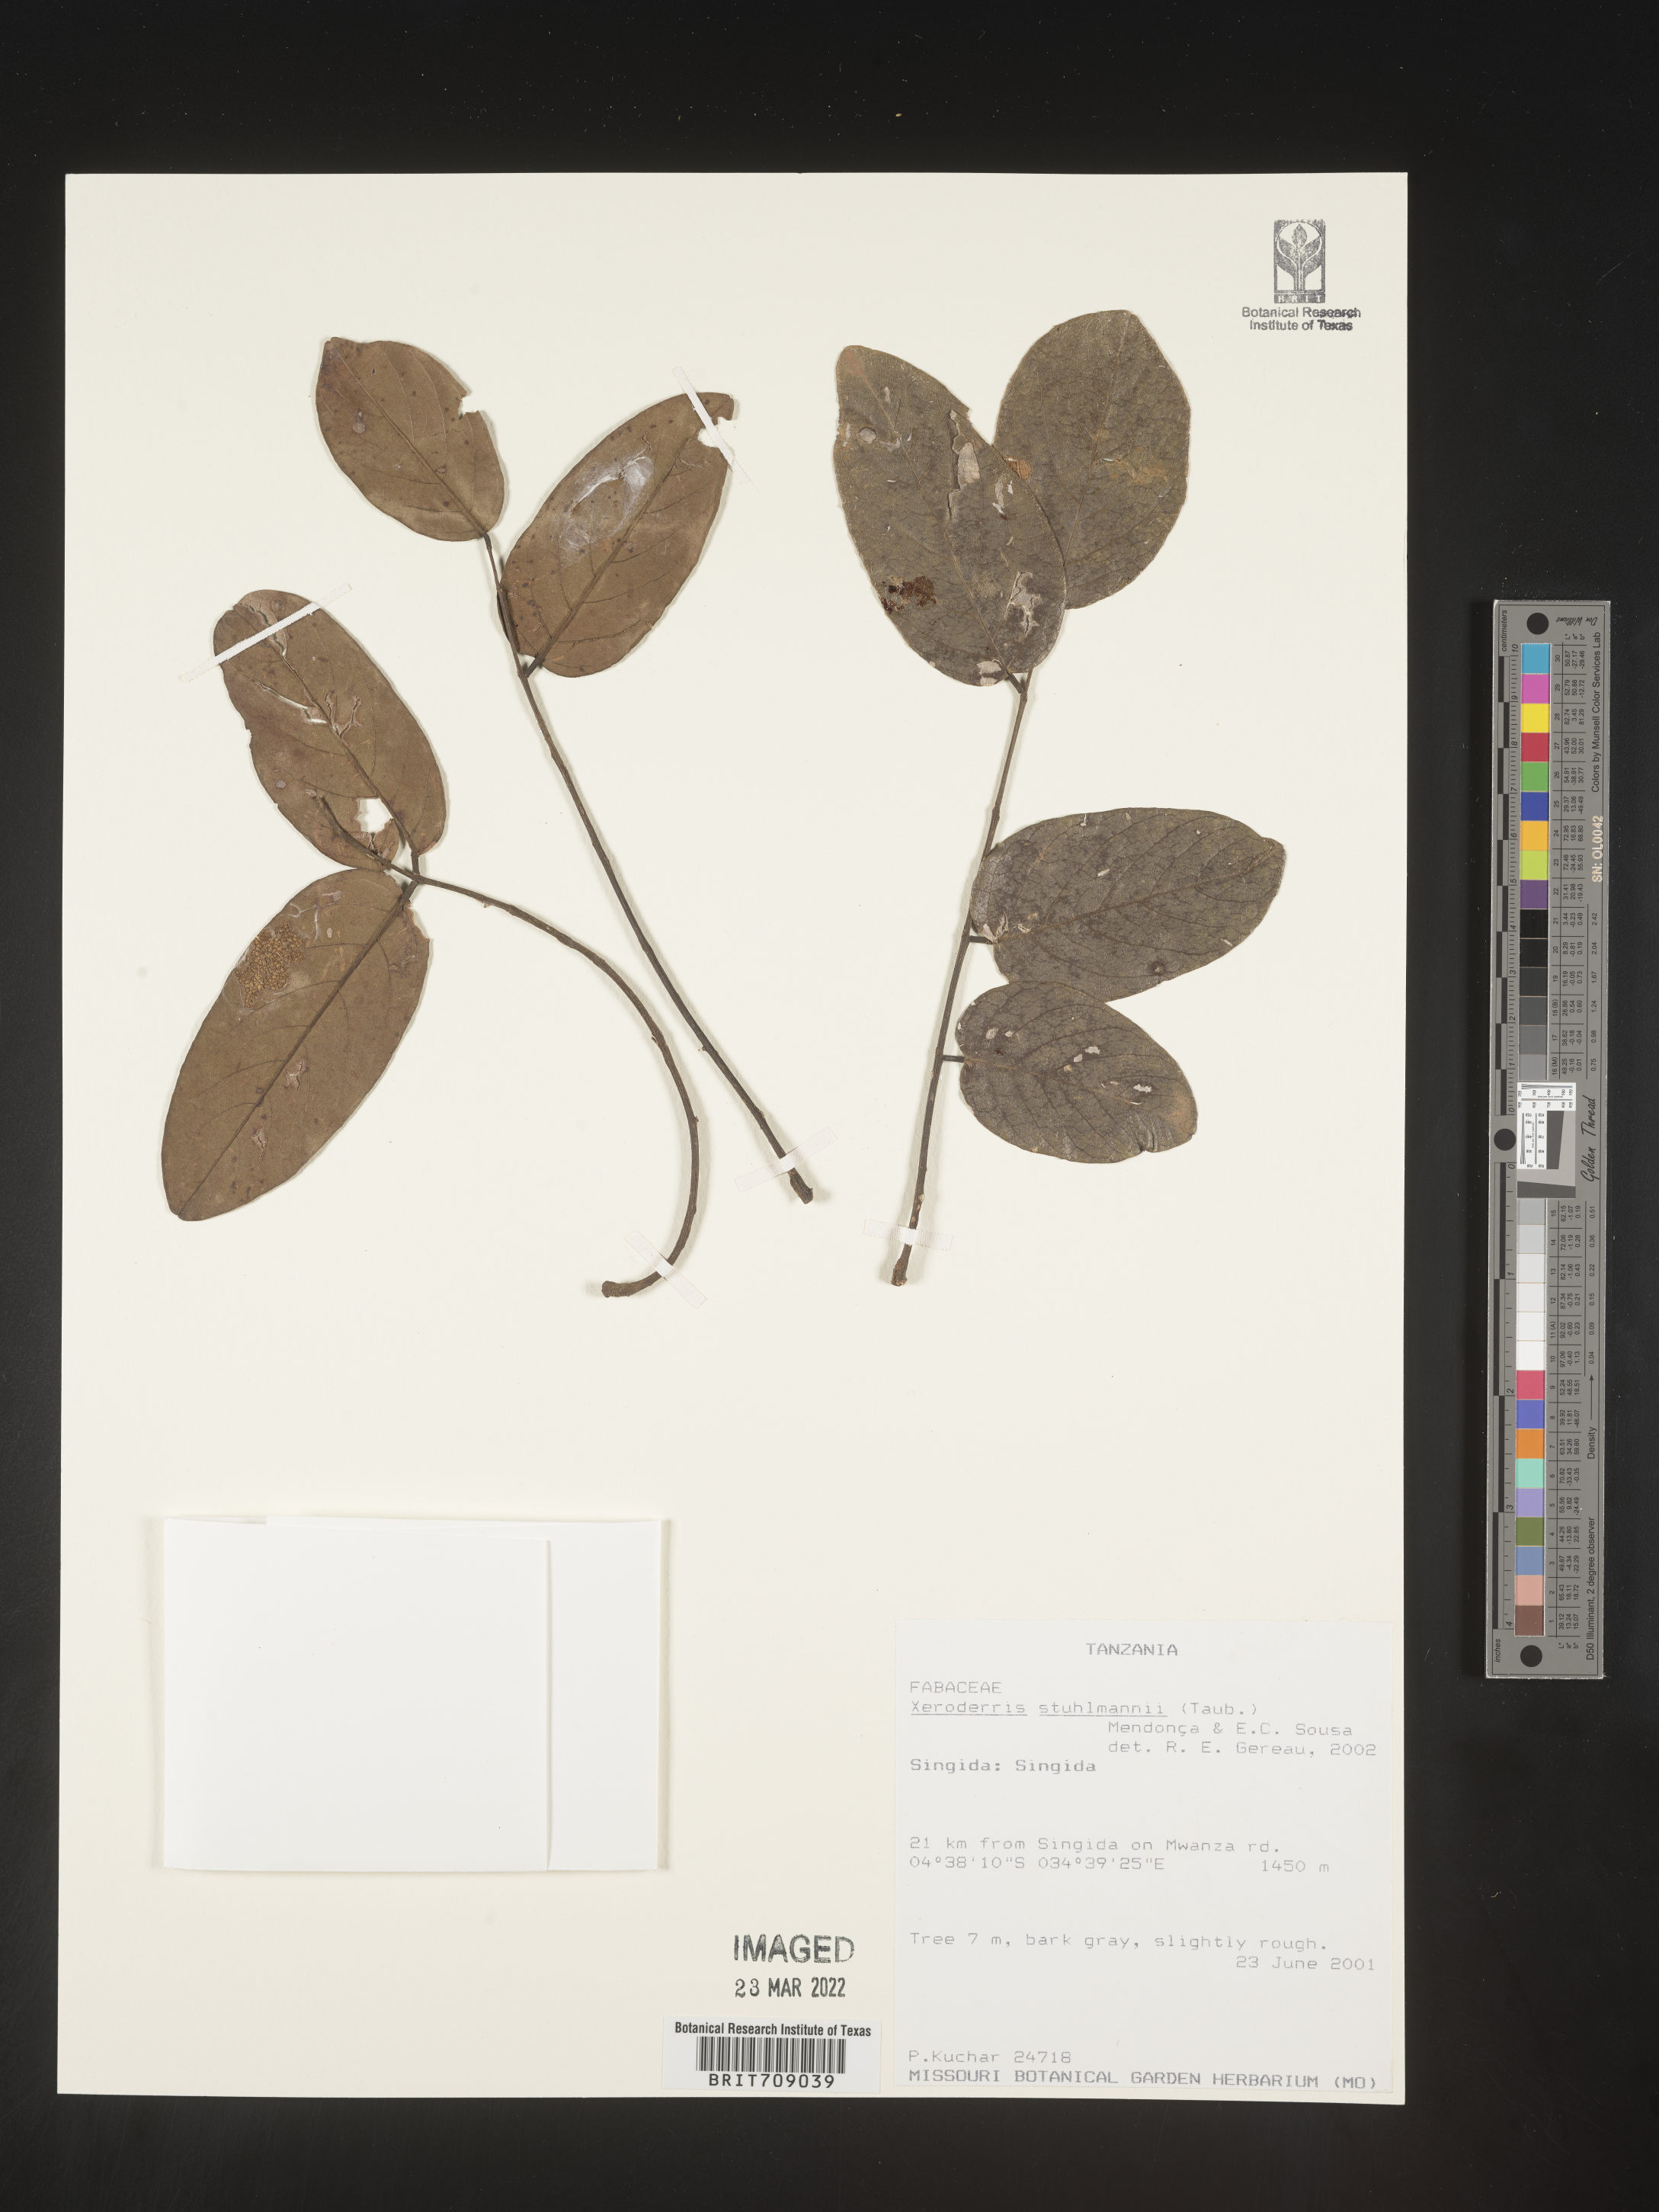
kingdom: Plantae
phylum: Tracheophyta
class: Magnoliopsida
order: Fabales
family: Fabaceae
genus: Aganope
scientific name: Aganope
